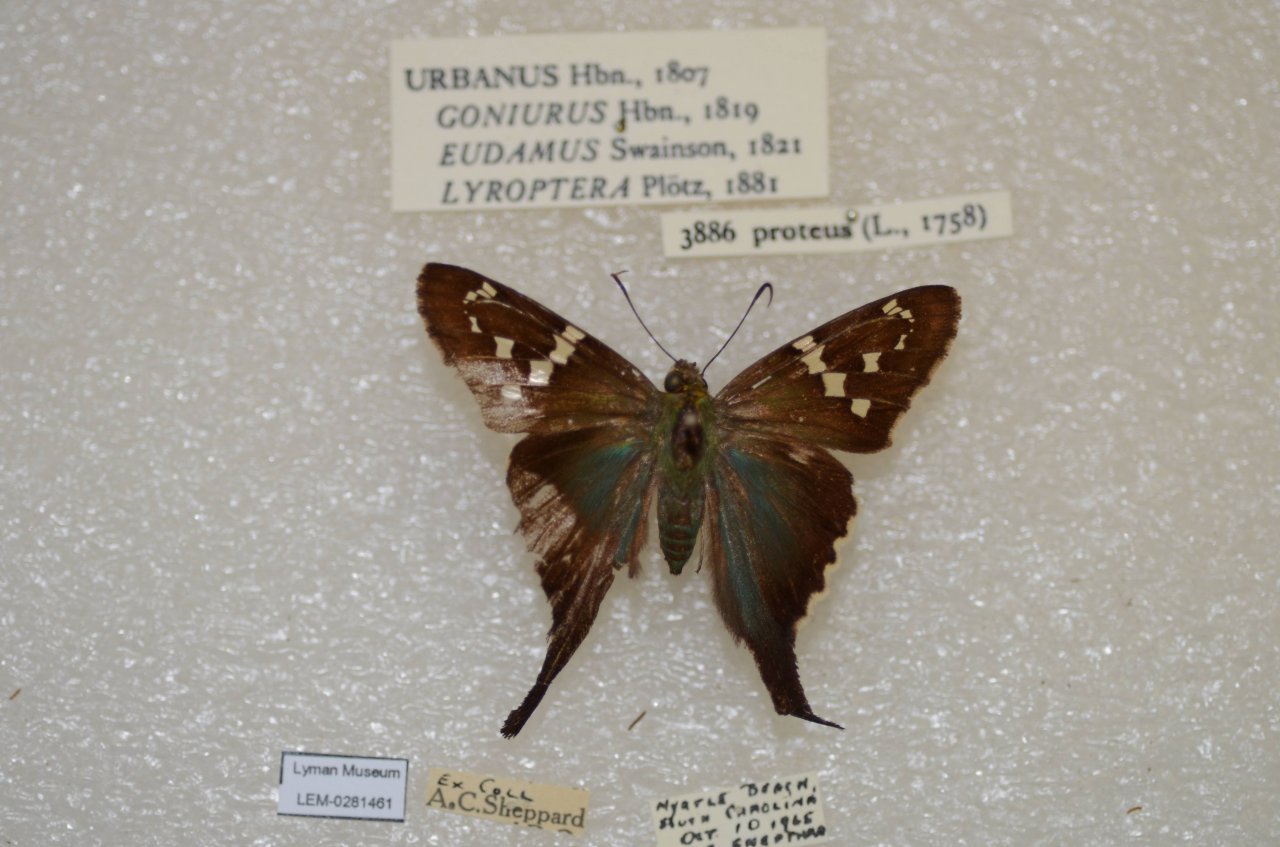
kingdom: Animalia
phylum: Arthropoda
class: Insecta
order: Lepidoptera
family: Hesperiidae
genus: Urbanus
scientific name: Urbanus proteus
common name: Long-tailed Skipper
